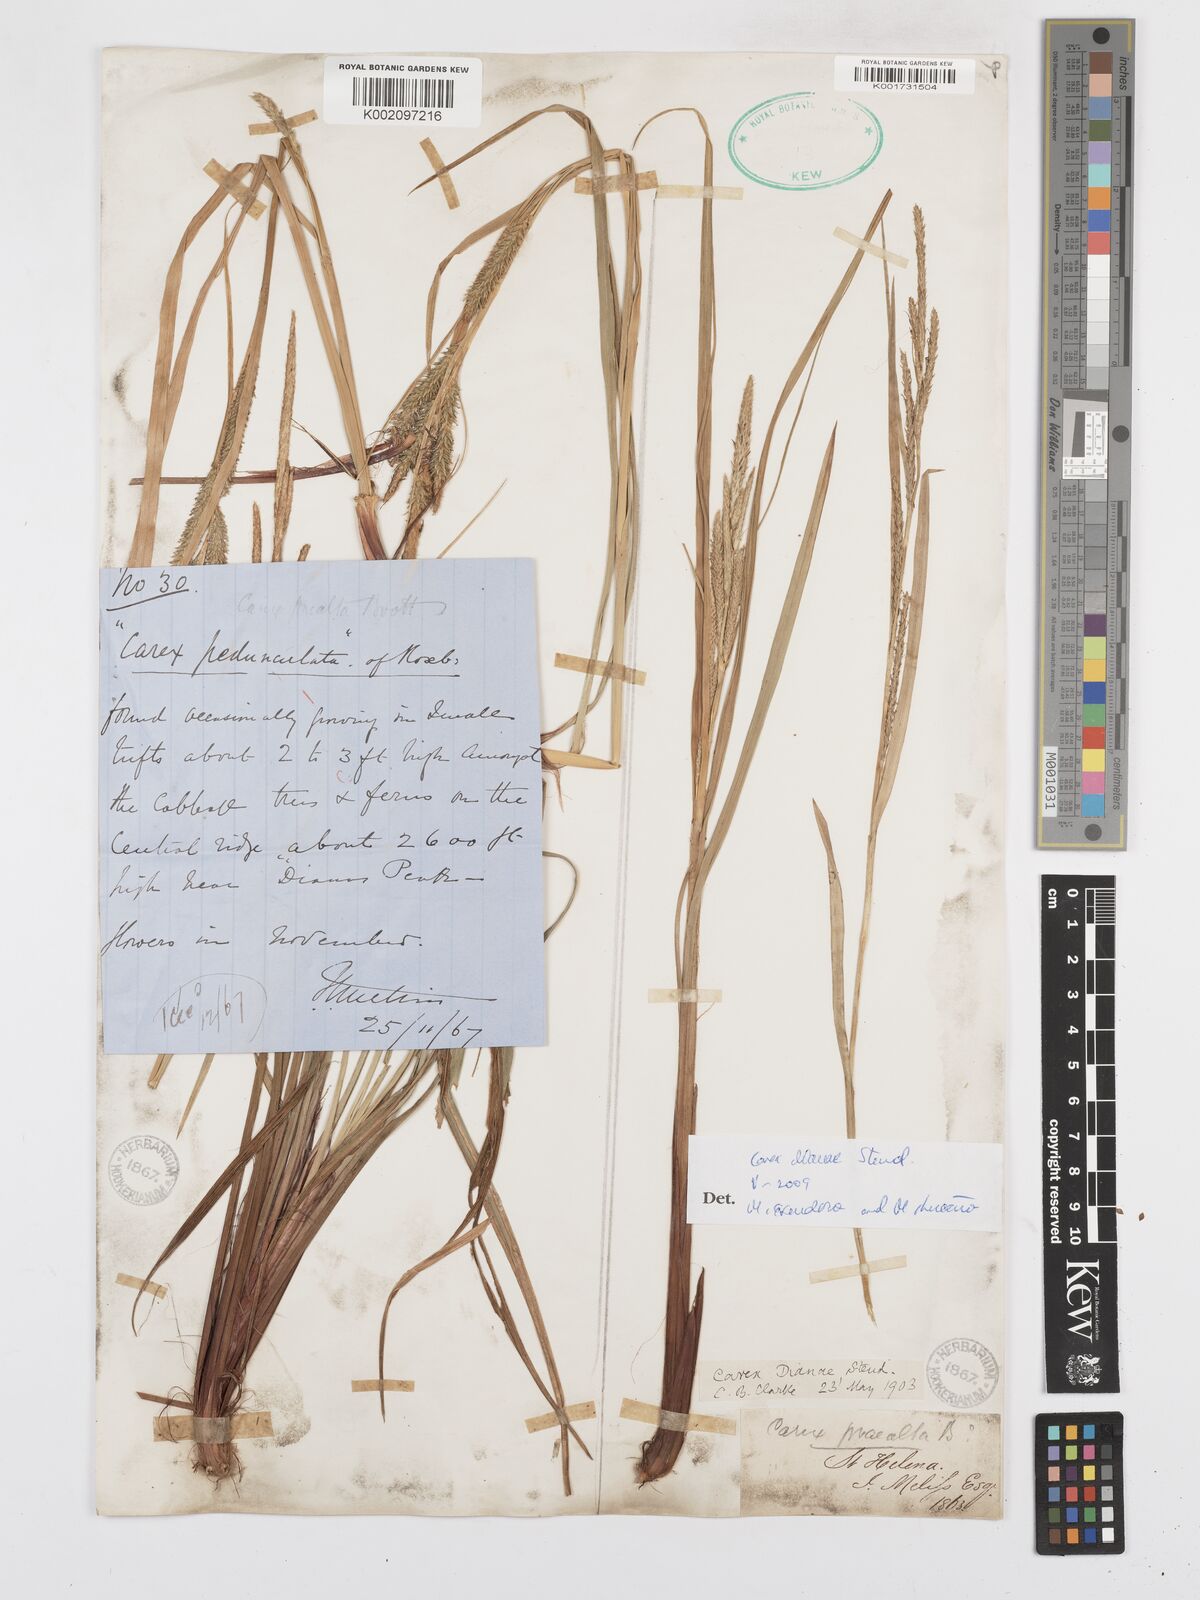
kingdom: Plantae
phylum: Tracheophyta
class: Liliopsida
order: Poales
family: Cyperaceae
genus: Carex
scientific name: Carex dianae
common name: Diana's peak grass
